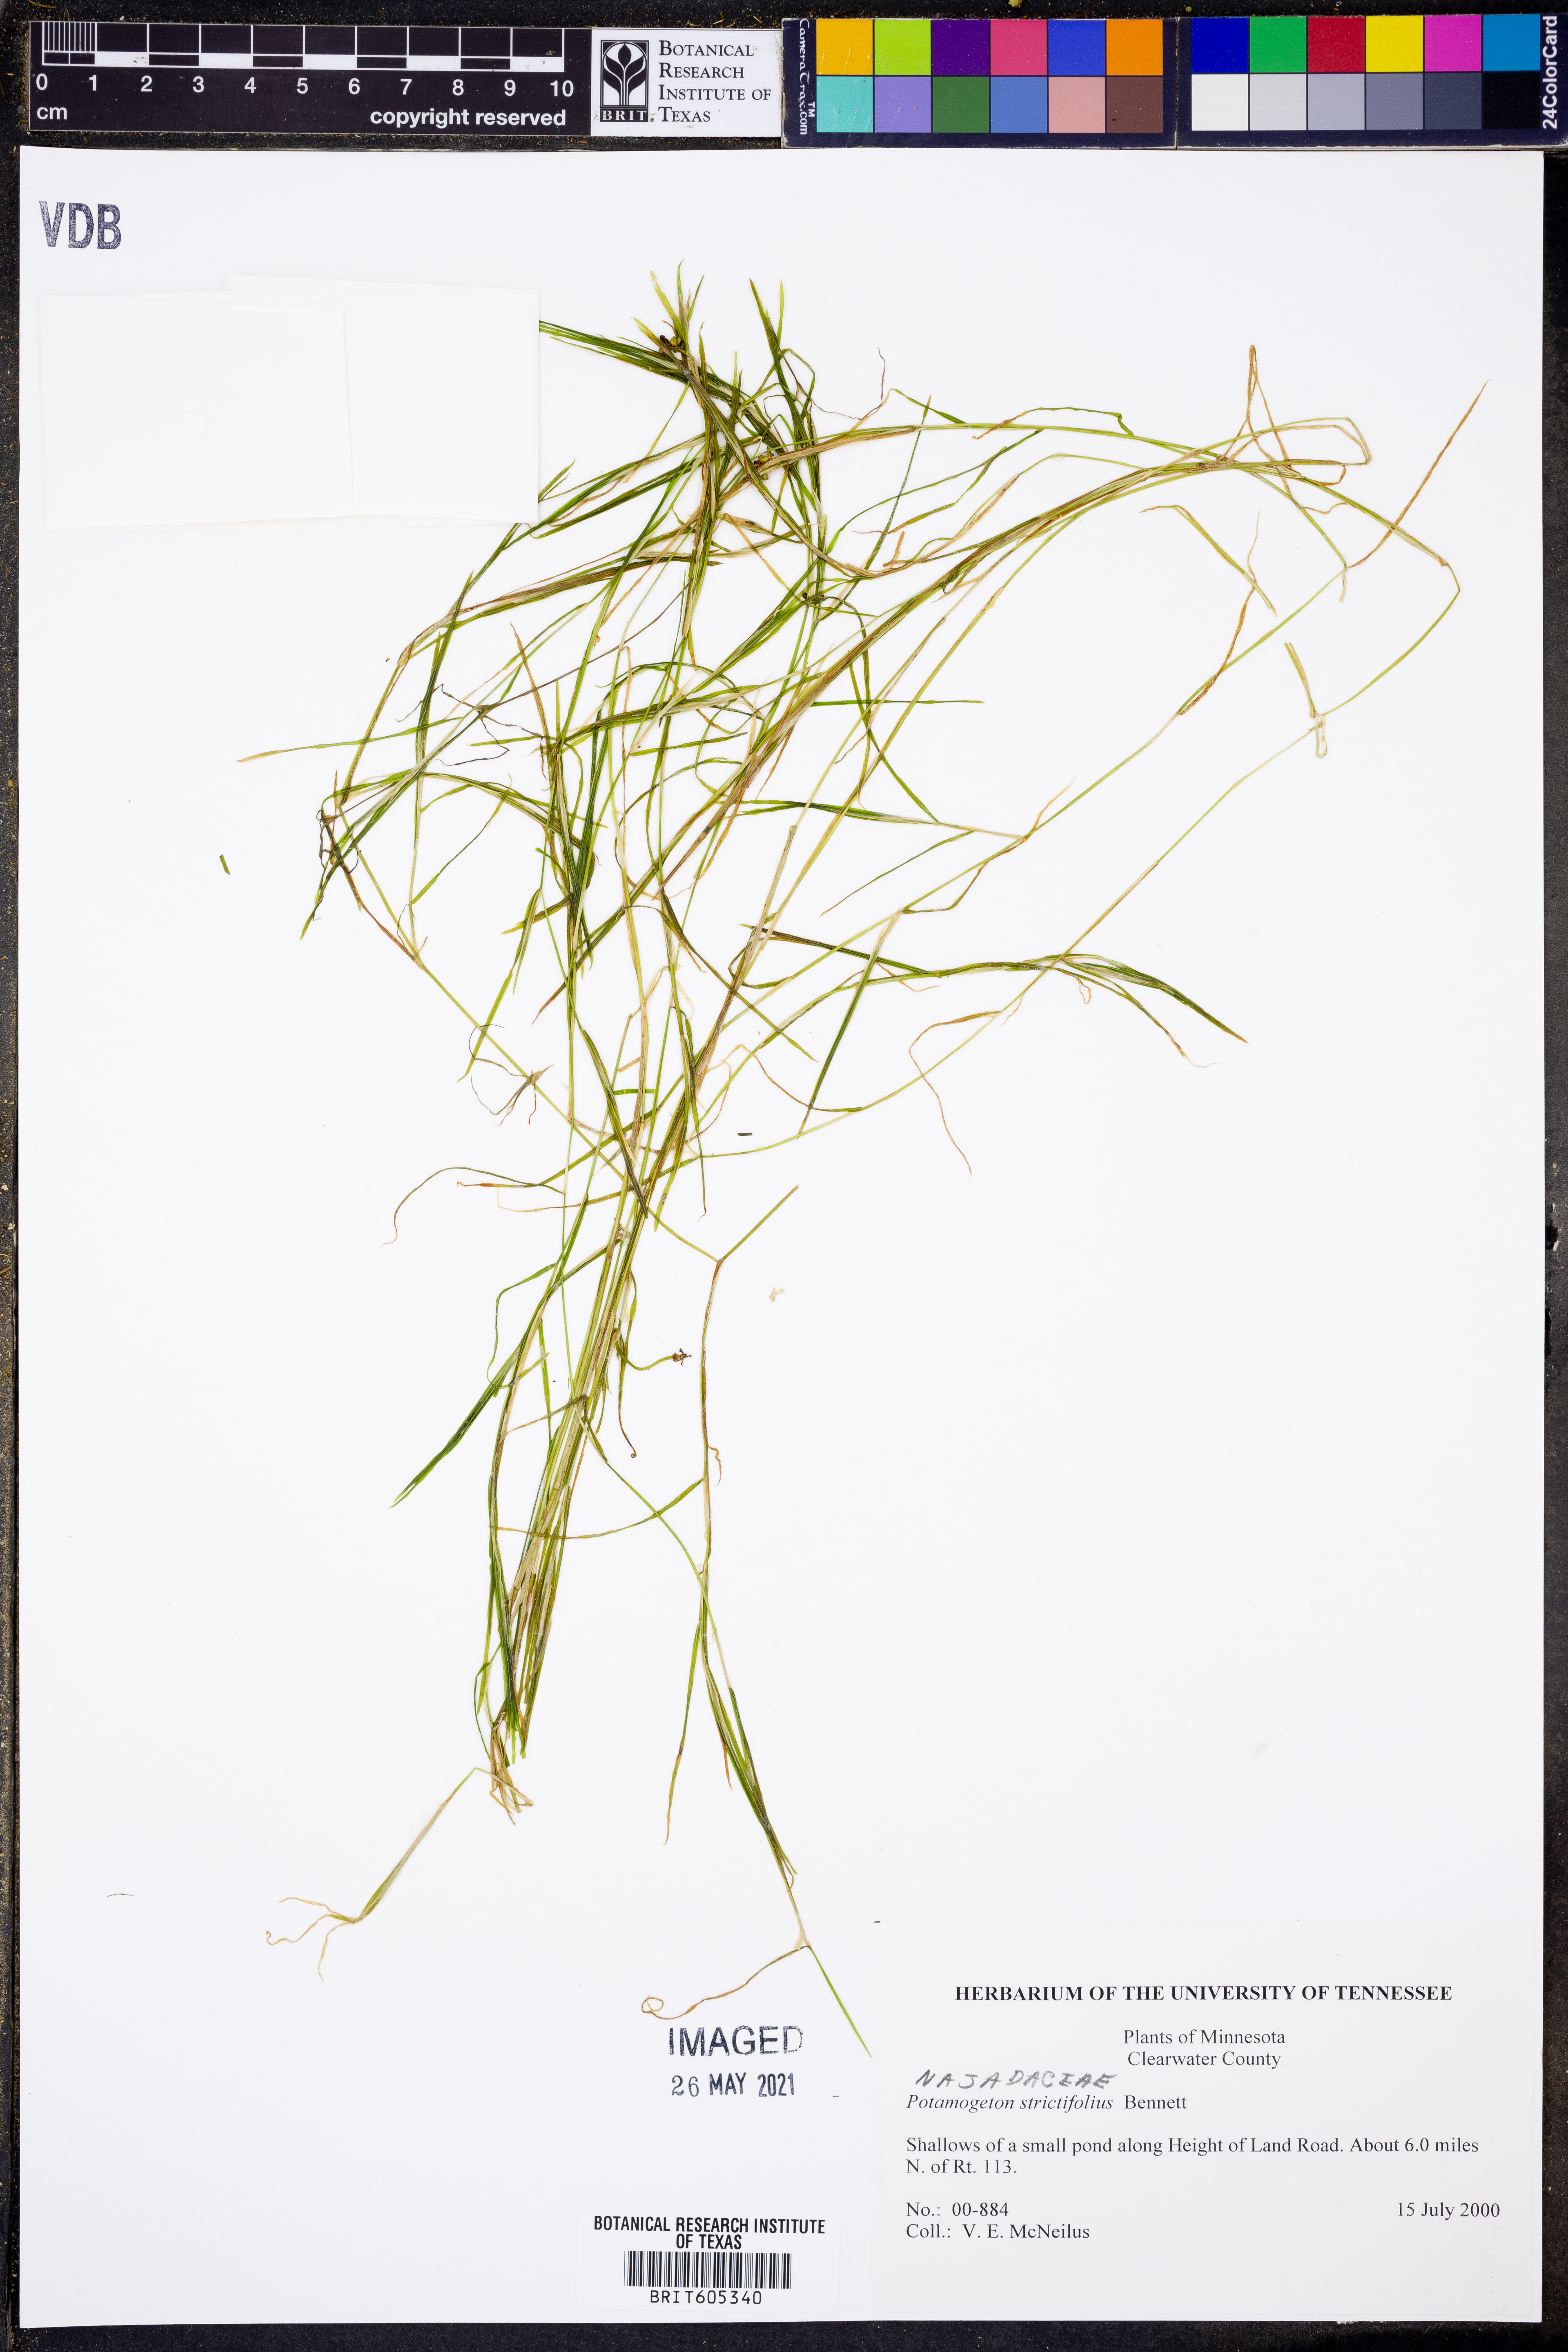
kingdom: Plantae
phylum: Tracheophyta
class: Liliopsida
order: Alismatales
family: Potamogetonaceae
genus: Potamogeton
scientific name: Potamogeton strictifolius
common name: Linear-leaved pondweed
